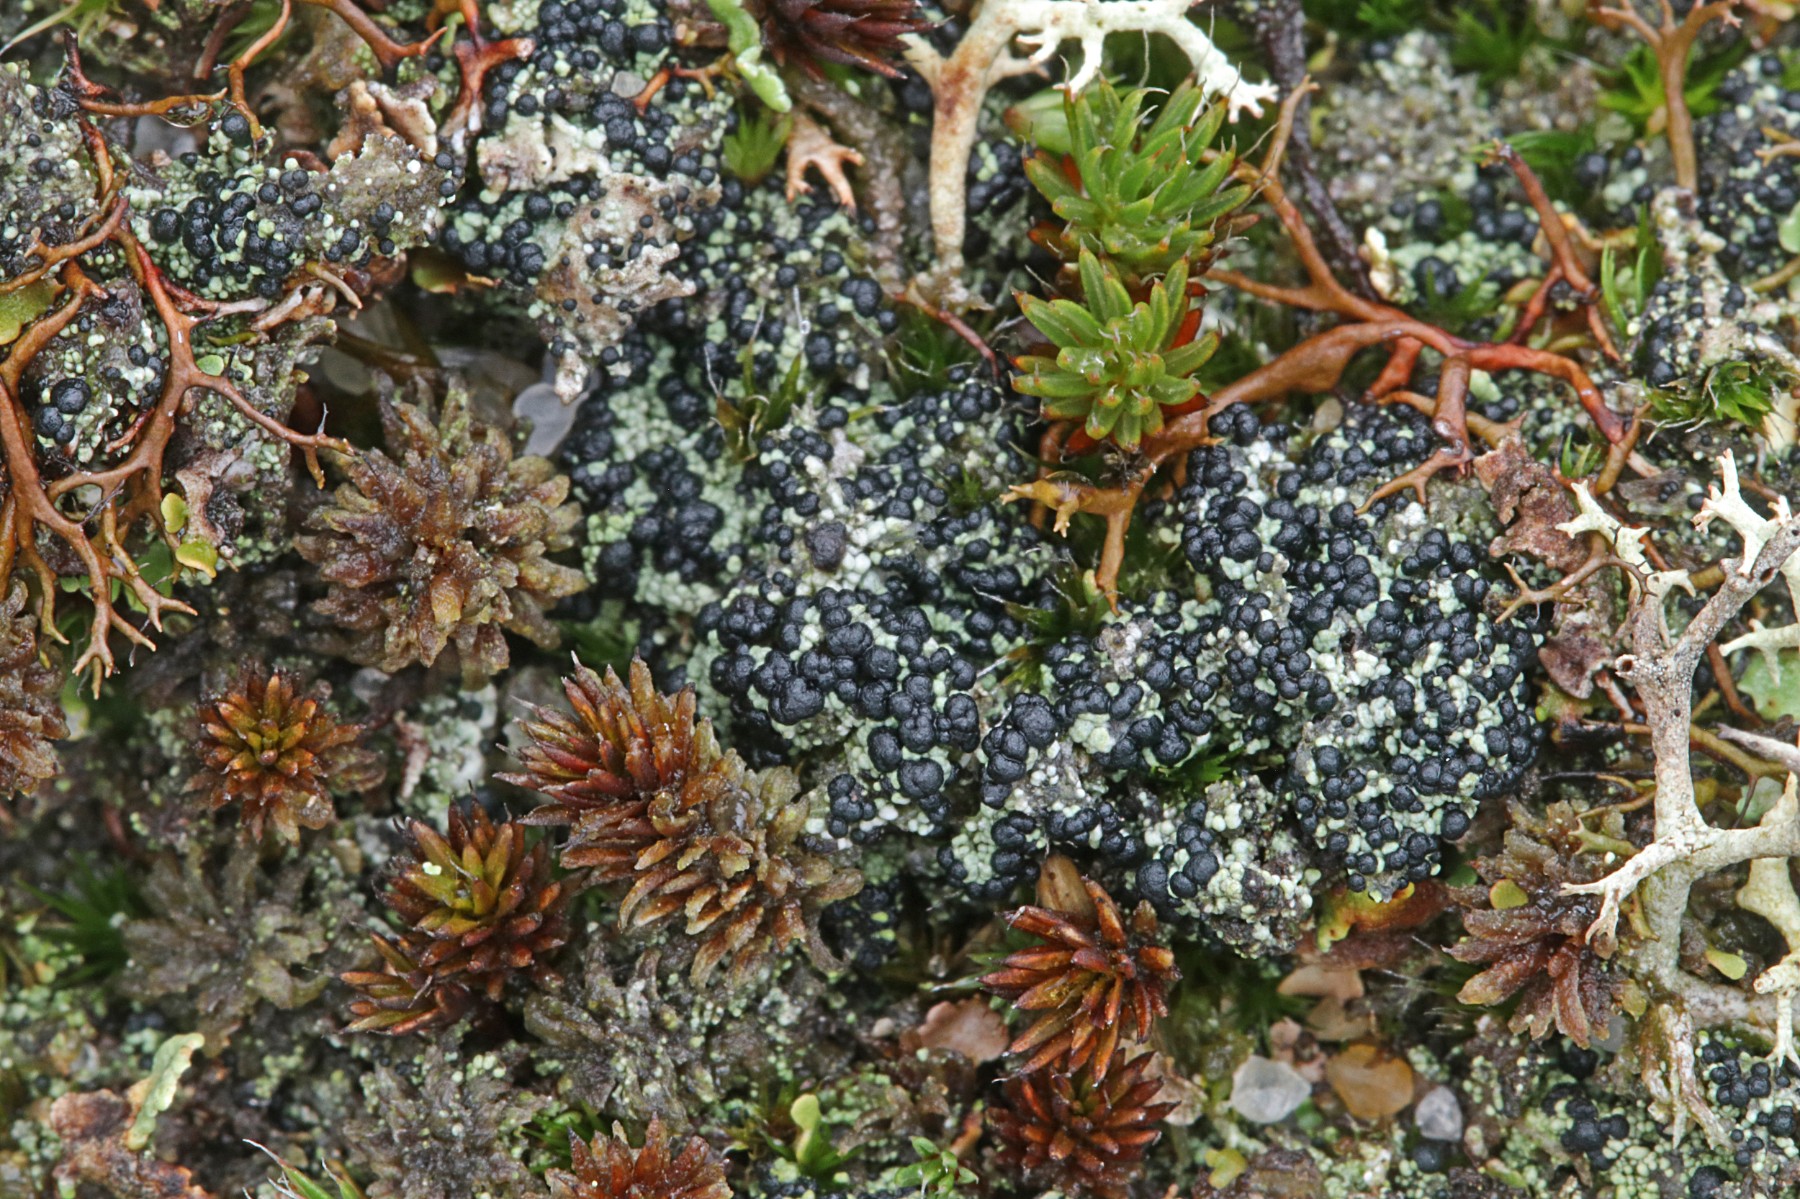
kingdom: Fungi
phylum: Ascomycota
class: Lecanoromycetes
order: Lecanorales
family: Byssolomataceae
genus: Micarea
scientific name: Micarea lignaria
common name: tørve-knaplav
